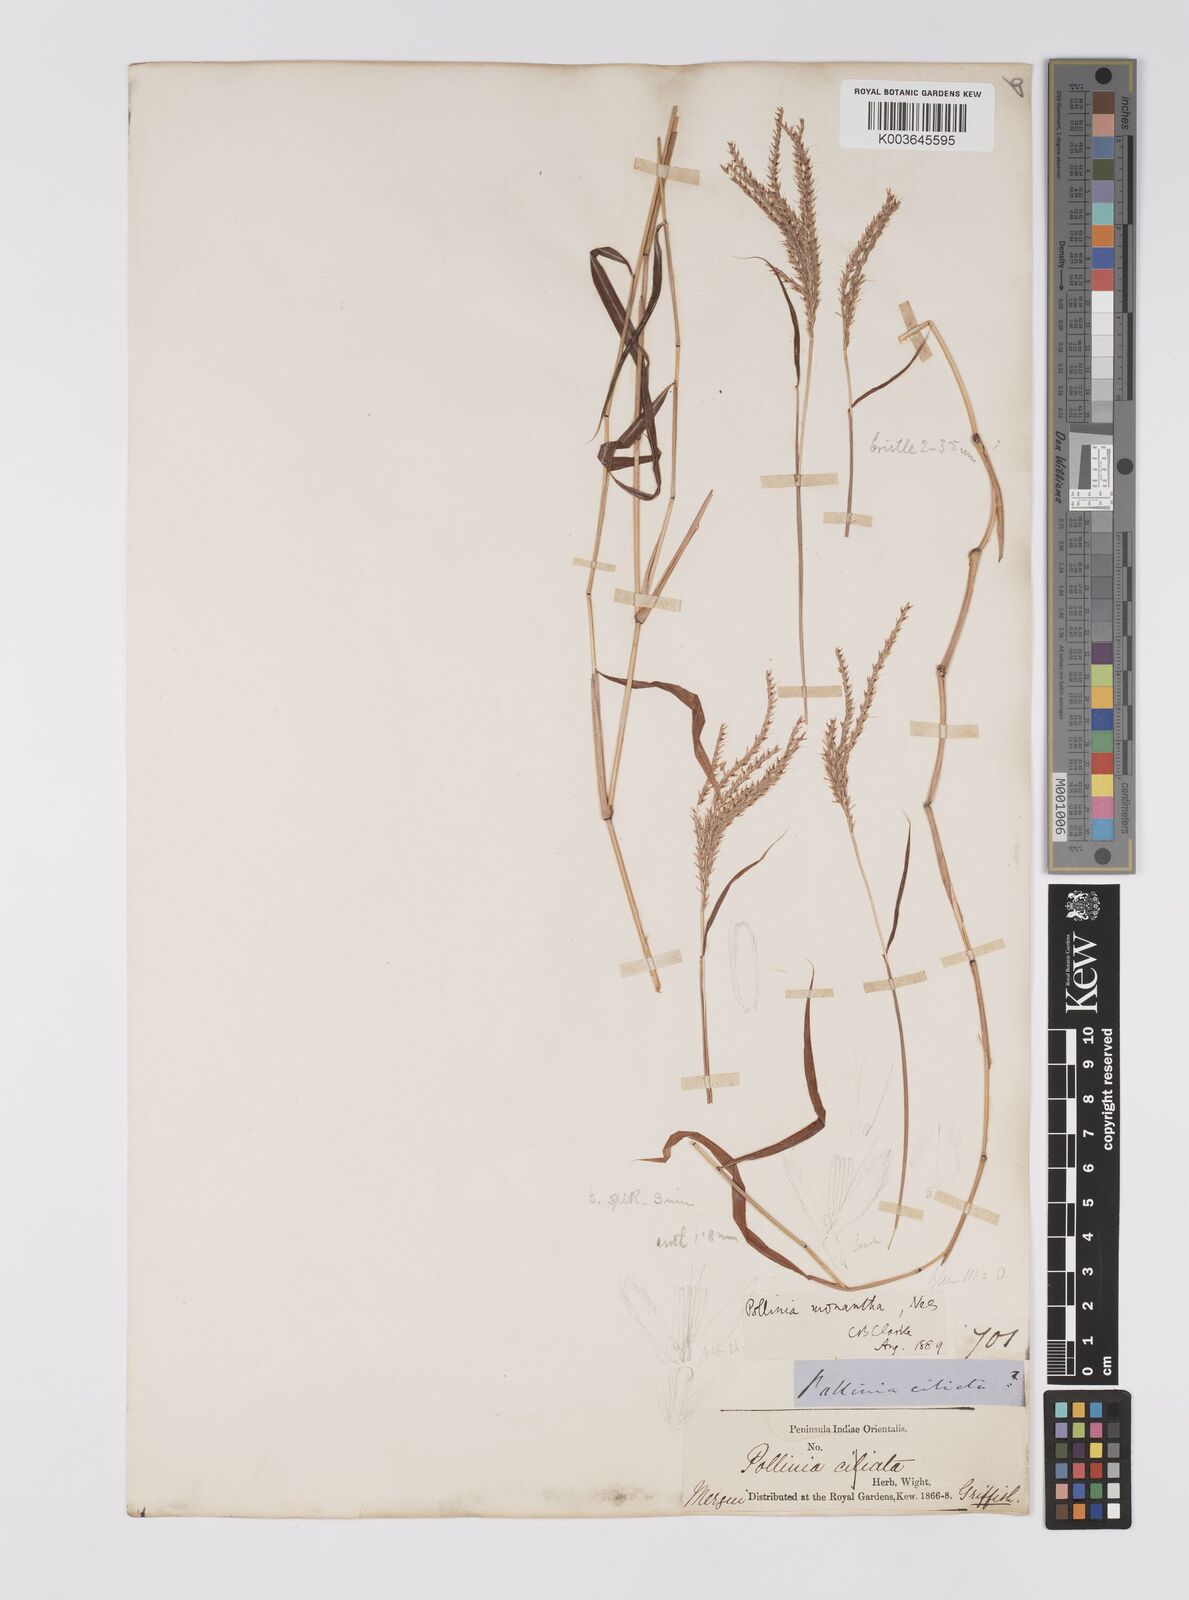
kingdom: Plantae
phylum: Tracheophyta
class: Liliopsida
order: Poales
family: Poaceae
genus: Microstegium
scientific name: Microstegium fasciculatum
